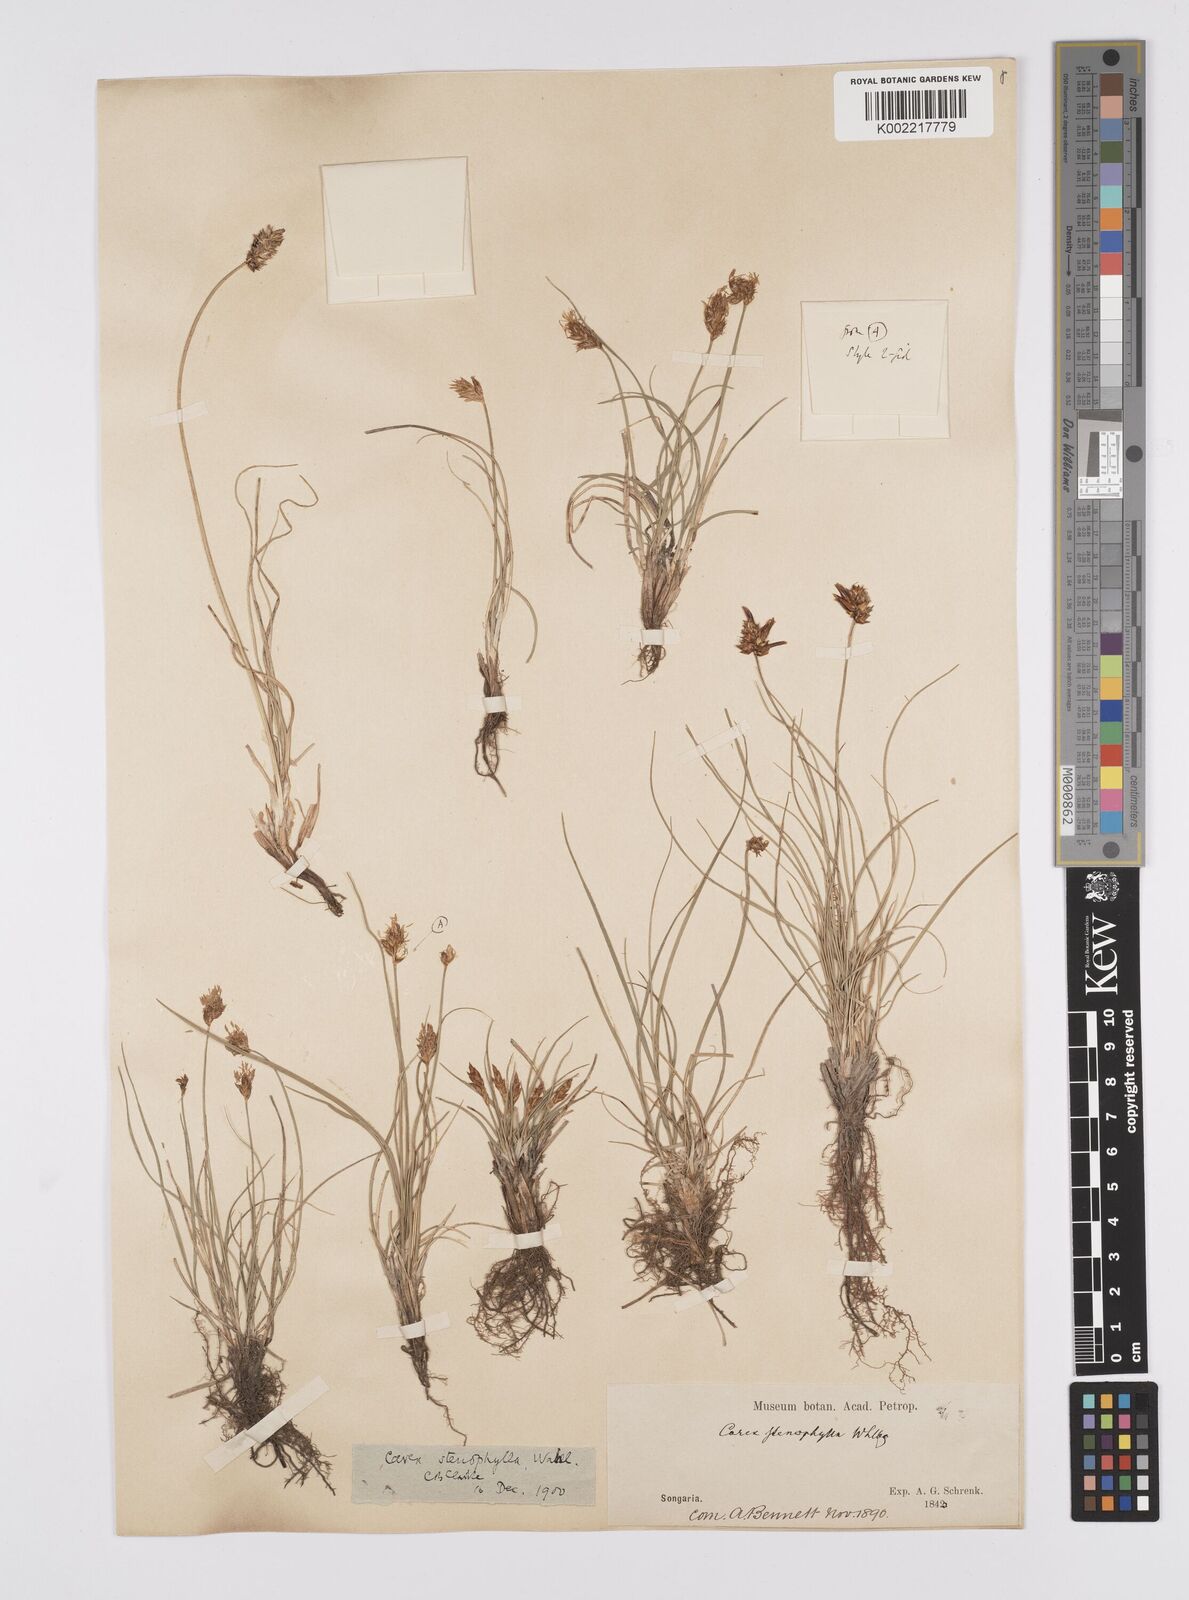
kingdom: Plantae
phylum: Tracheophyta
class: Liliopsida
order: Poales
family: Cyperaceae
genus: Carex
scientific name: Carex stenophylla
